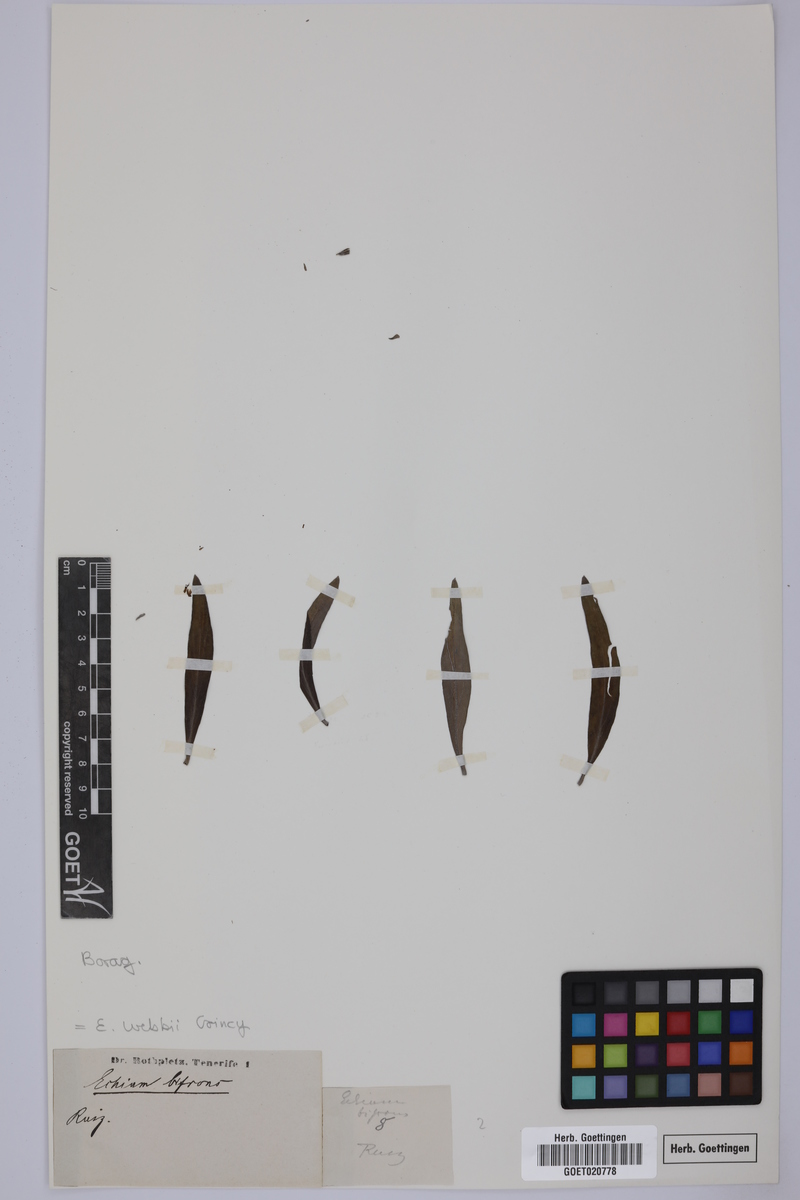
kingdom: Plantae
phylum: Tracheophyta
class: Magnoliopsida
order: Boraginales
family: Boraginaceae
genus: Echium
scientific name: Echium webbii
